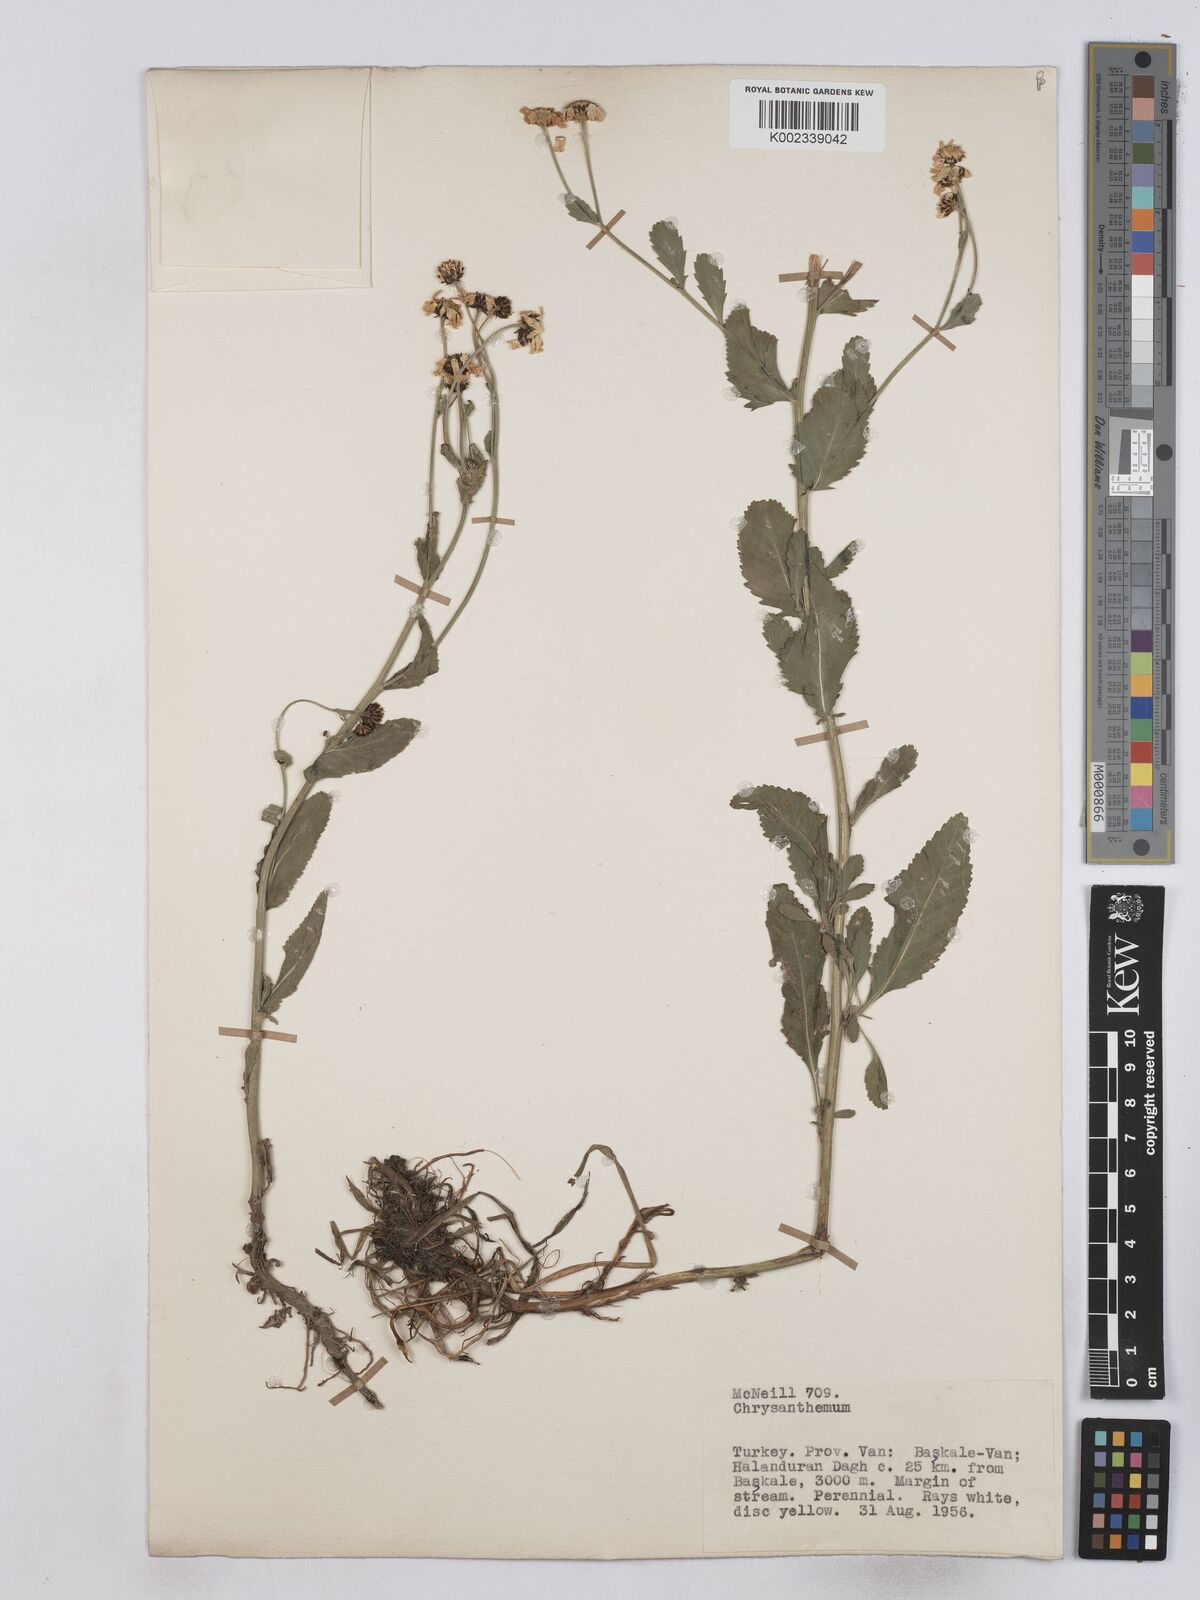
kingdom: Plantae
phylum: Tracheophyta
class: Magnoliopsida
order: Asterales
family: Asteraceae
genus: Tanacetum
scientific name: Tanacetum balsamita
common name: Costmary
